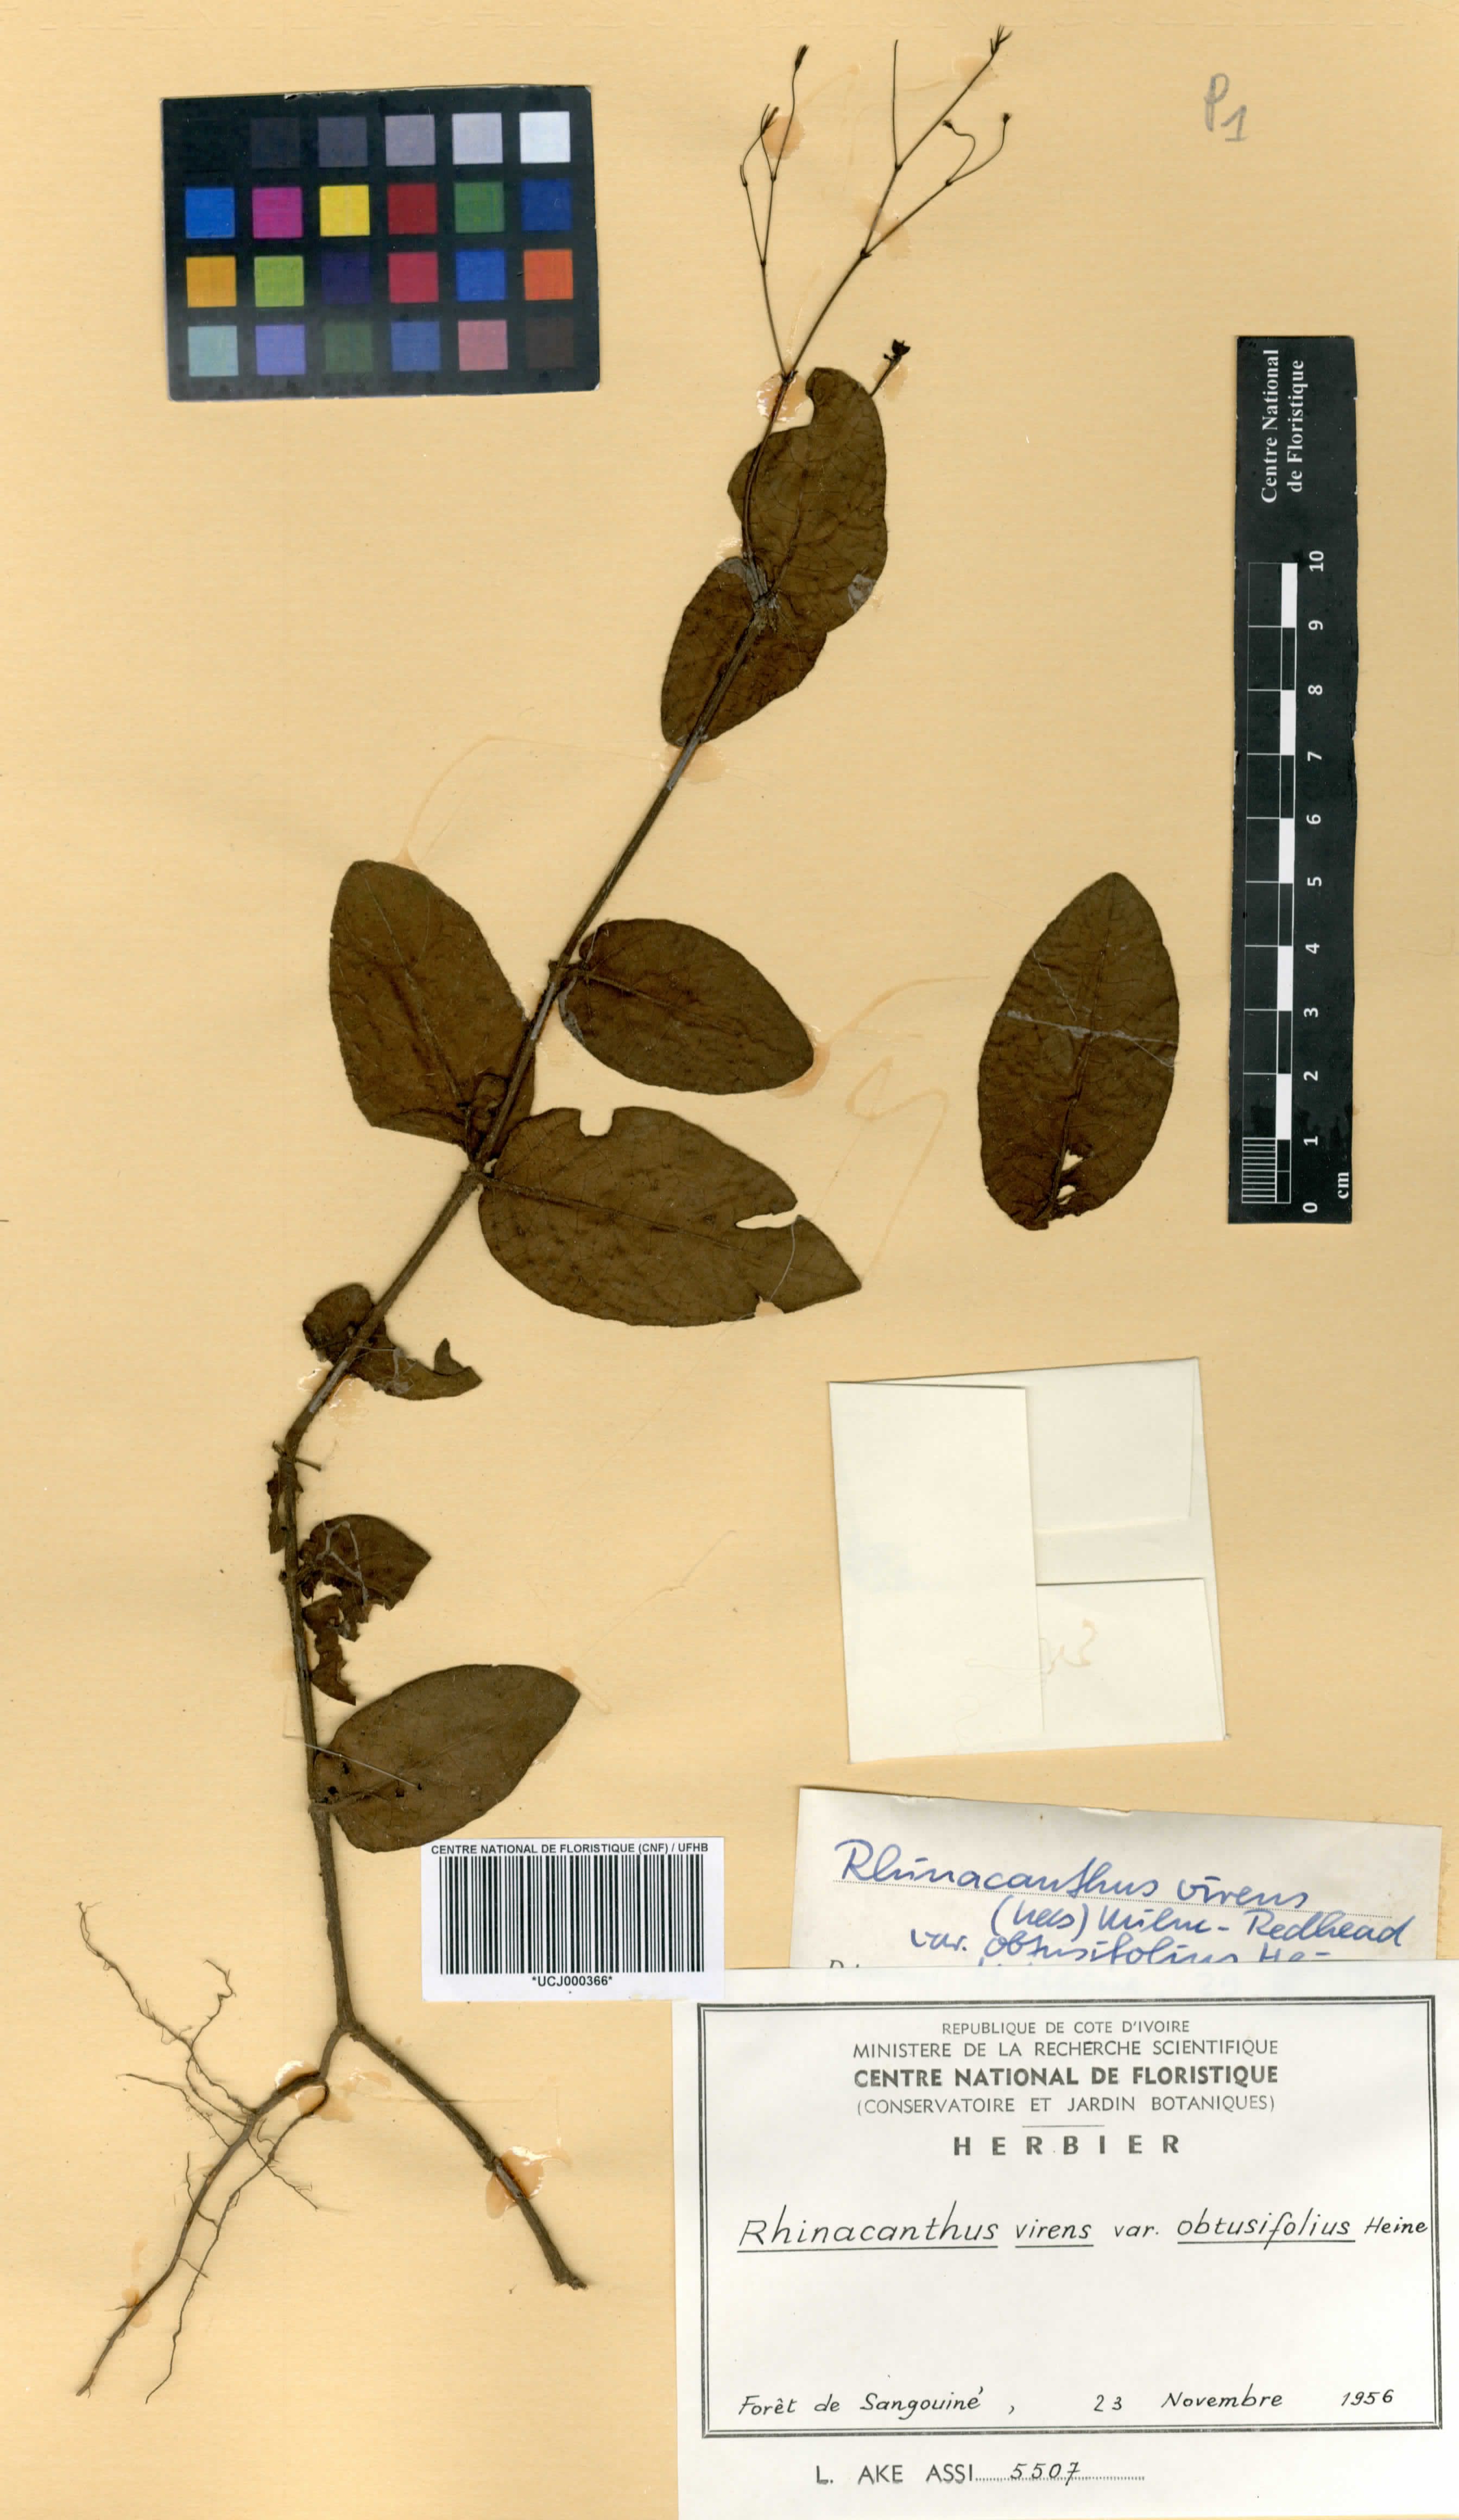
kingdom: Plantae
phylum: Tracheophyta
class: Magnoliopsida
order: Lamiales
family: Acanthaceae
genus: Rhinacanthus
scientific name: Rhinacanthus obtusifolius
